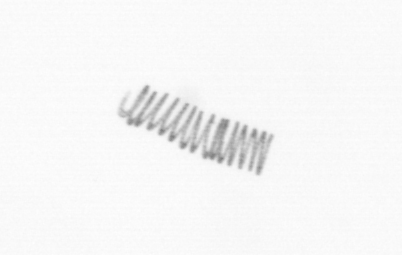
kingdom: Chromista
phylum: Ochrophyta
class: Bacillariophyceae
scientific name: Bacillariophyceae
